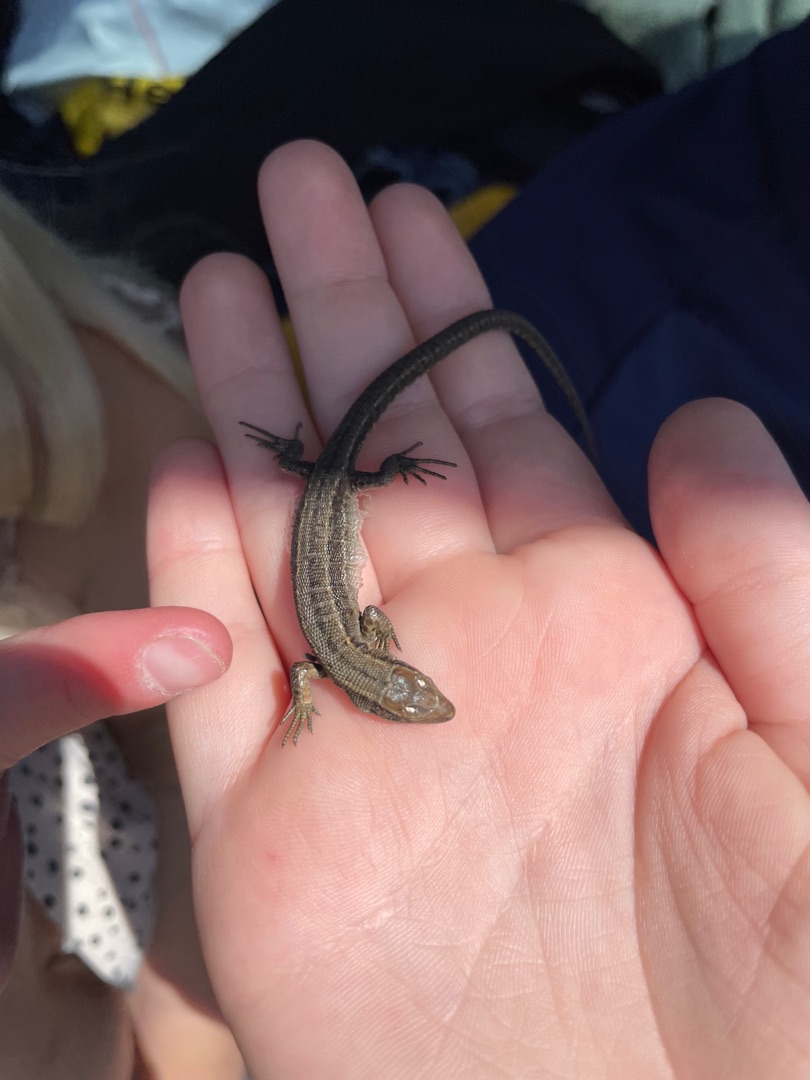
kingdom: Animalia
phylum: Chordata
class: Squamata
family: Lacertidae
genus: Zootoca
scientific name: Zootoca vivipara
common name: Skovfirben
